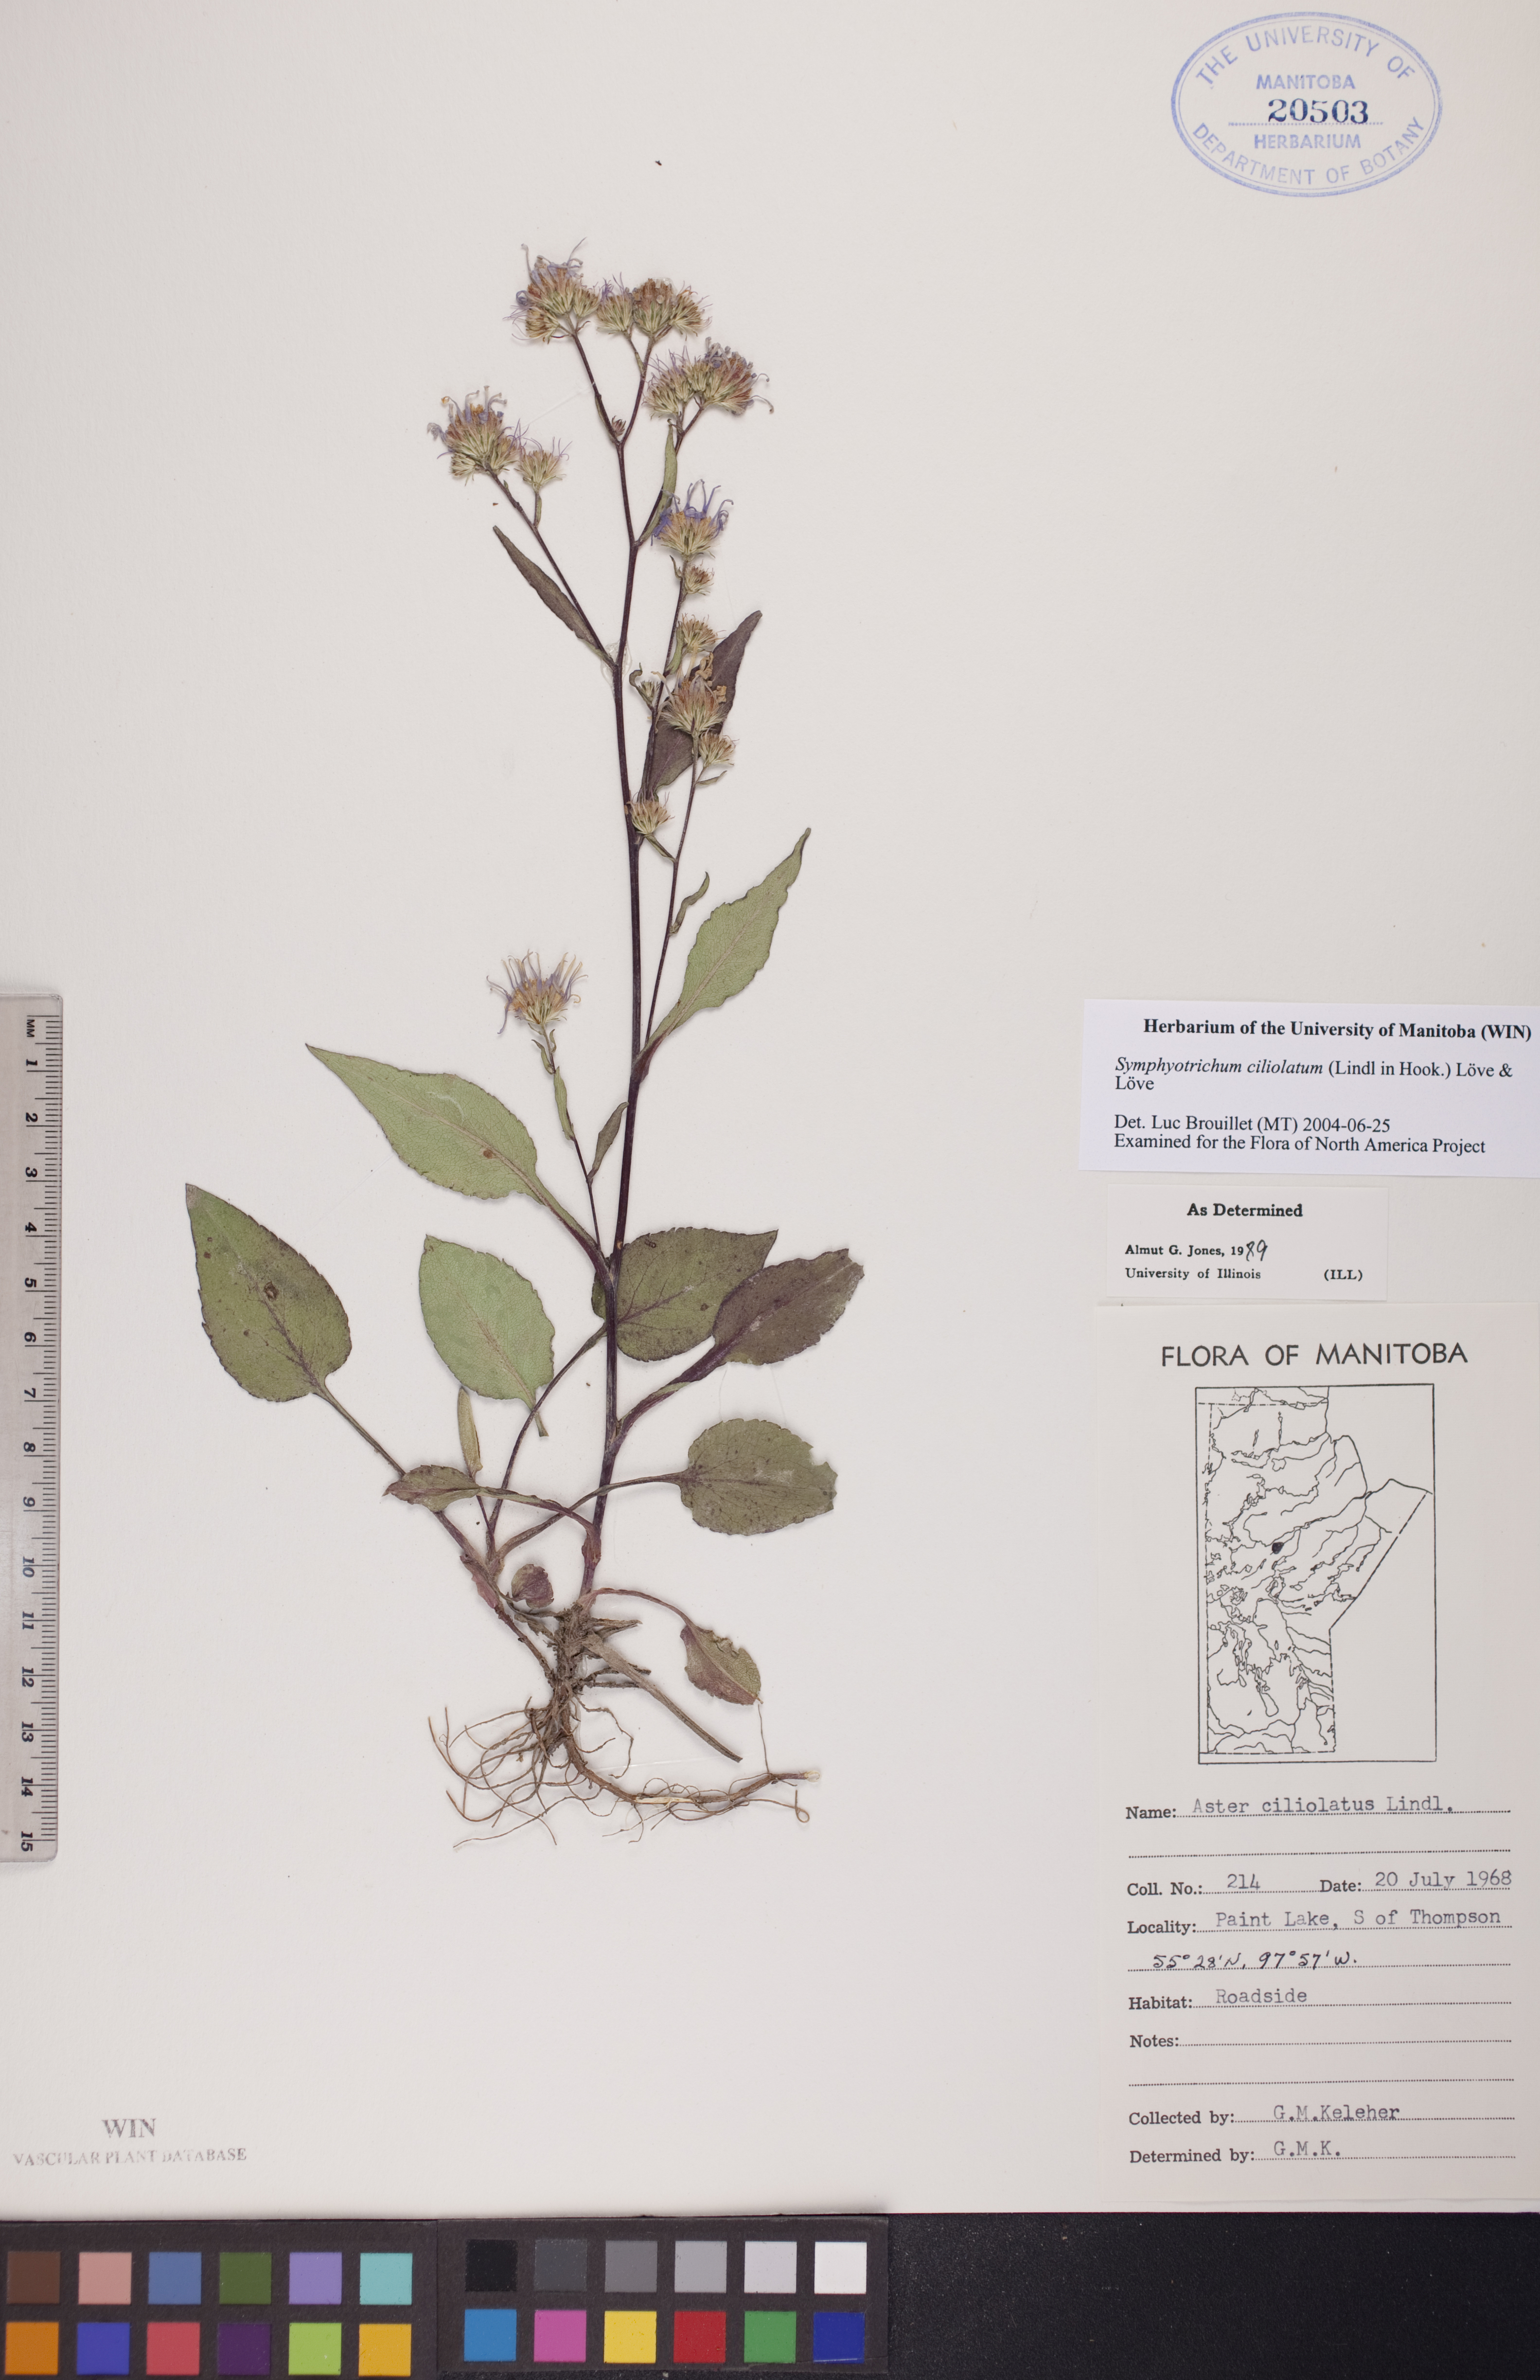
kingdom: Plantae
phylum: Tracheophyta
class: Magnoliopsida
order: Asterales
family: Asteraceae
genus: Symphyotrichum
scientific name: Symphyotrichum ciliolatum
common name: Fringed blue aster
